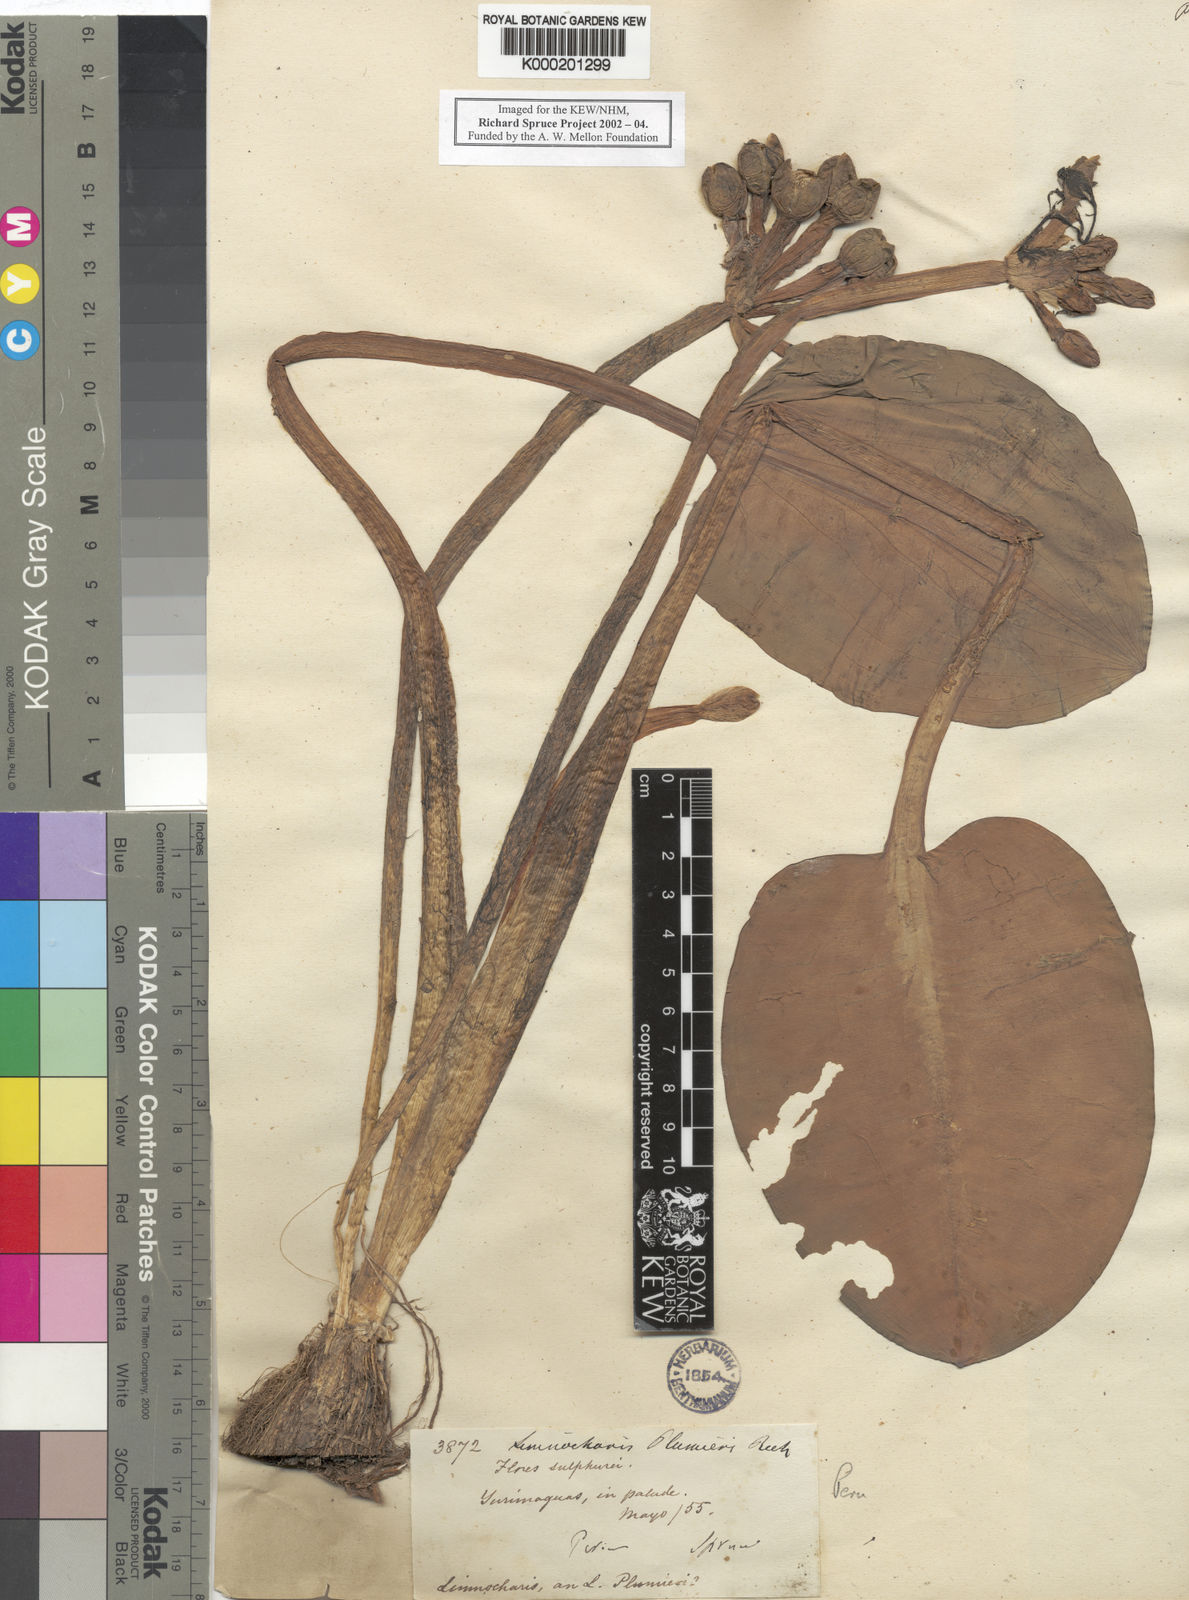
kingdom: Plantae
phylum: Tracheophyta
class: Liliopsida
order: Alismatales
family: Alismataceae
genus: Limnocharis
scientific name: Limnocharis flava
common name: Sawah-flower-rush
